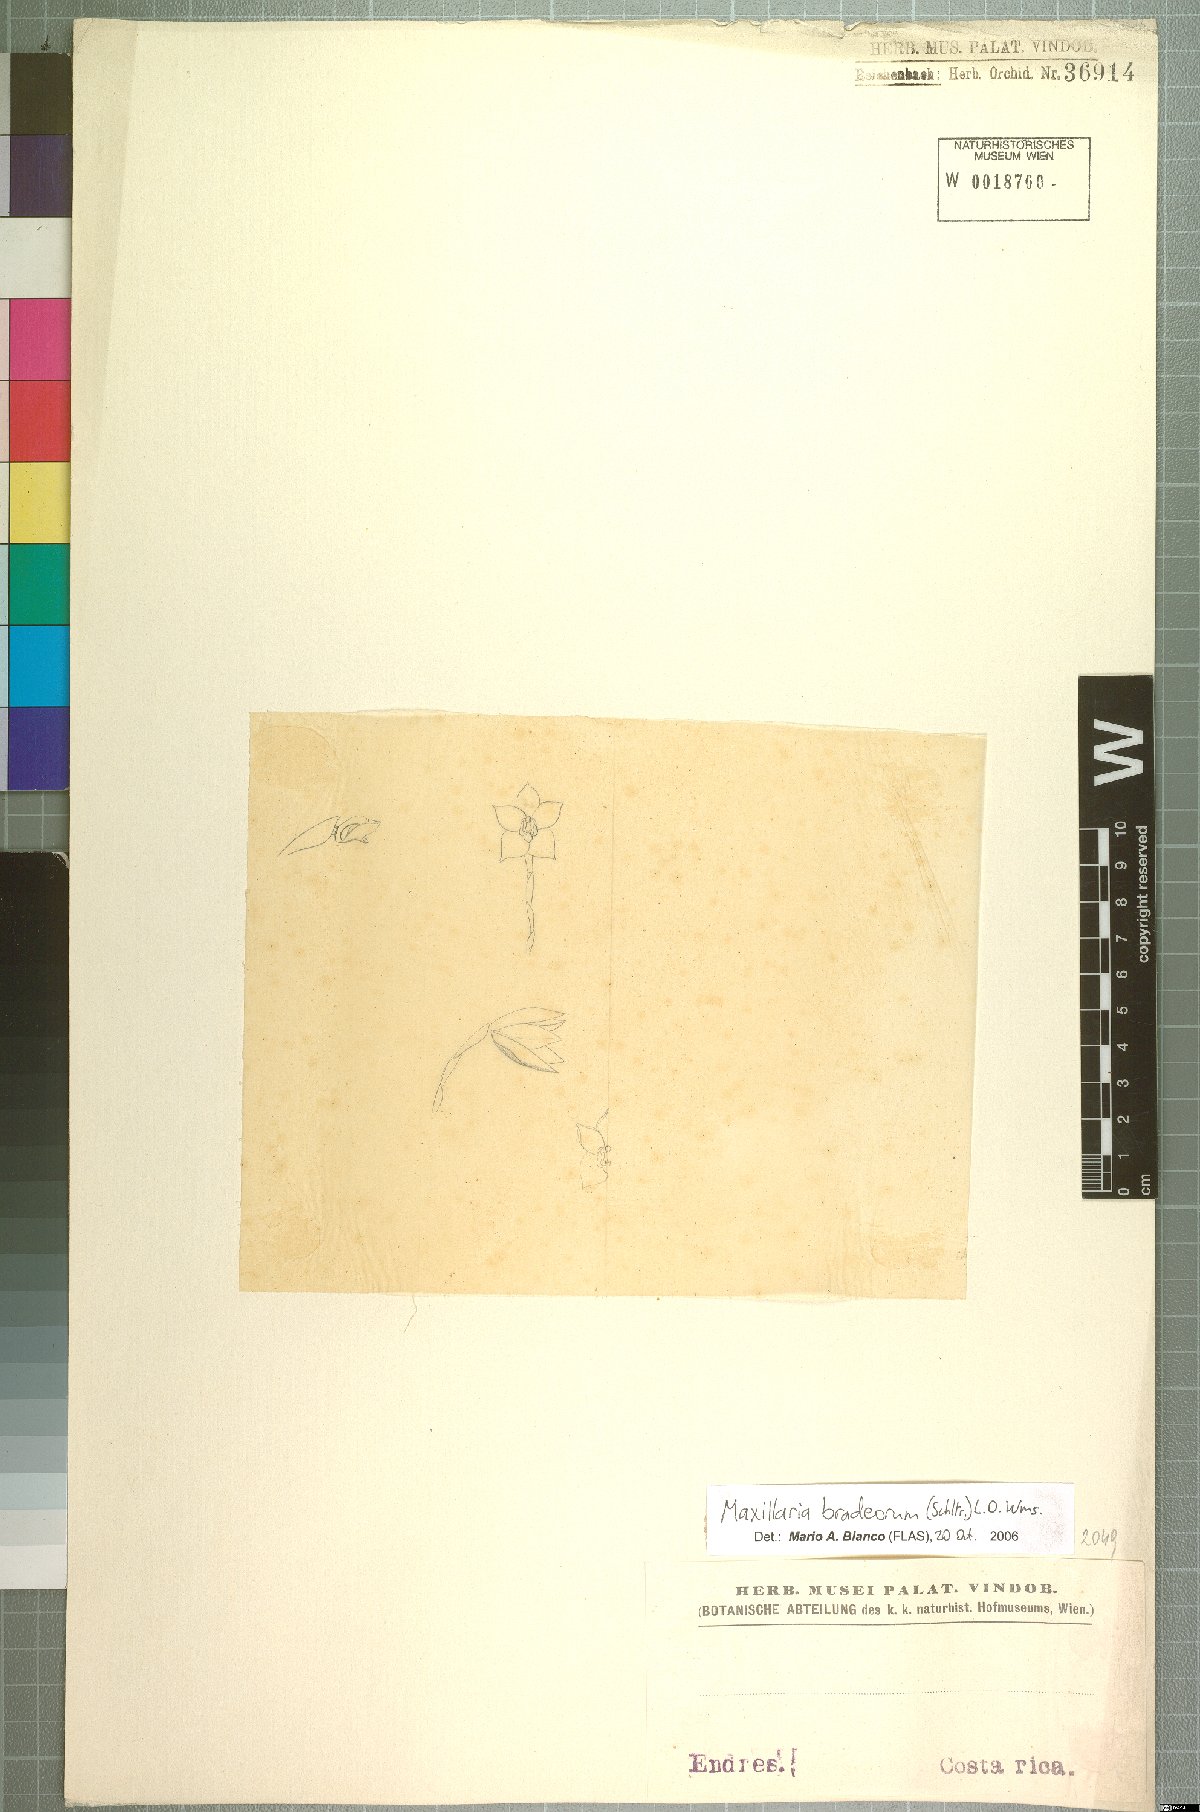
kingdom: Plantae
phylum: Tracheophyta
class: Liliopsida
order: Asparagales
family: Orchidaceae
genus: Maxillaria
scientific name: Maxillaria bradeorum
